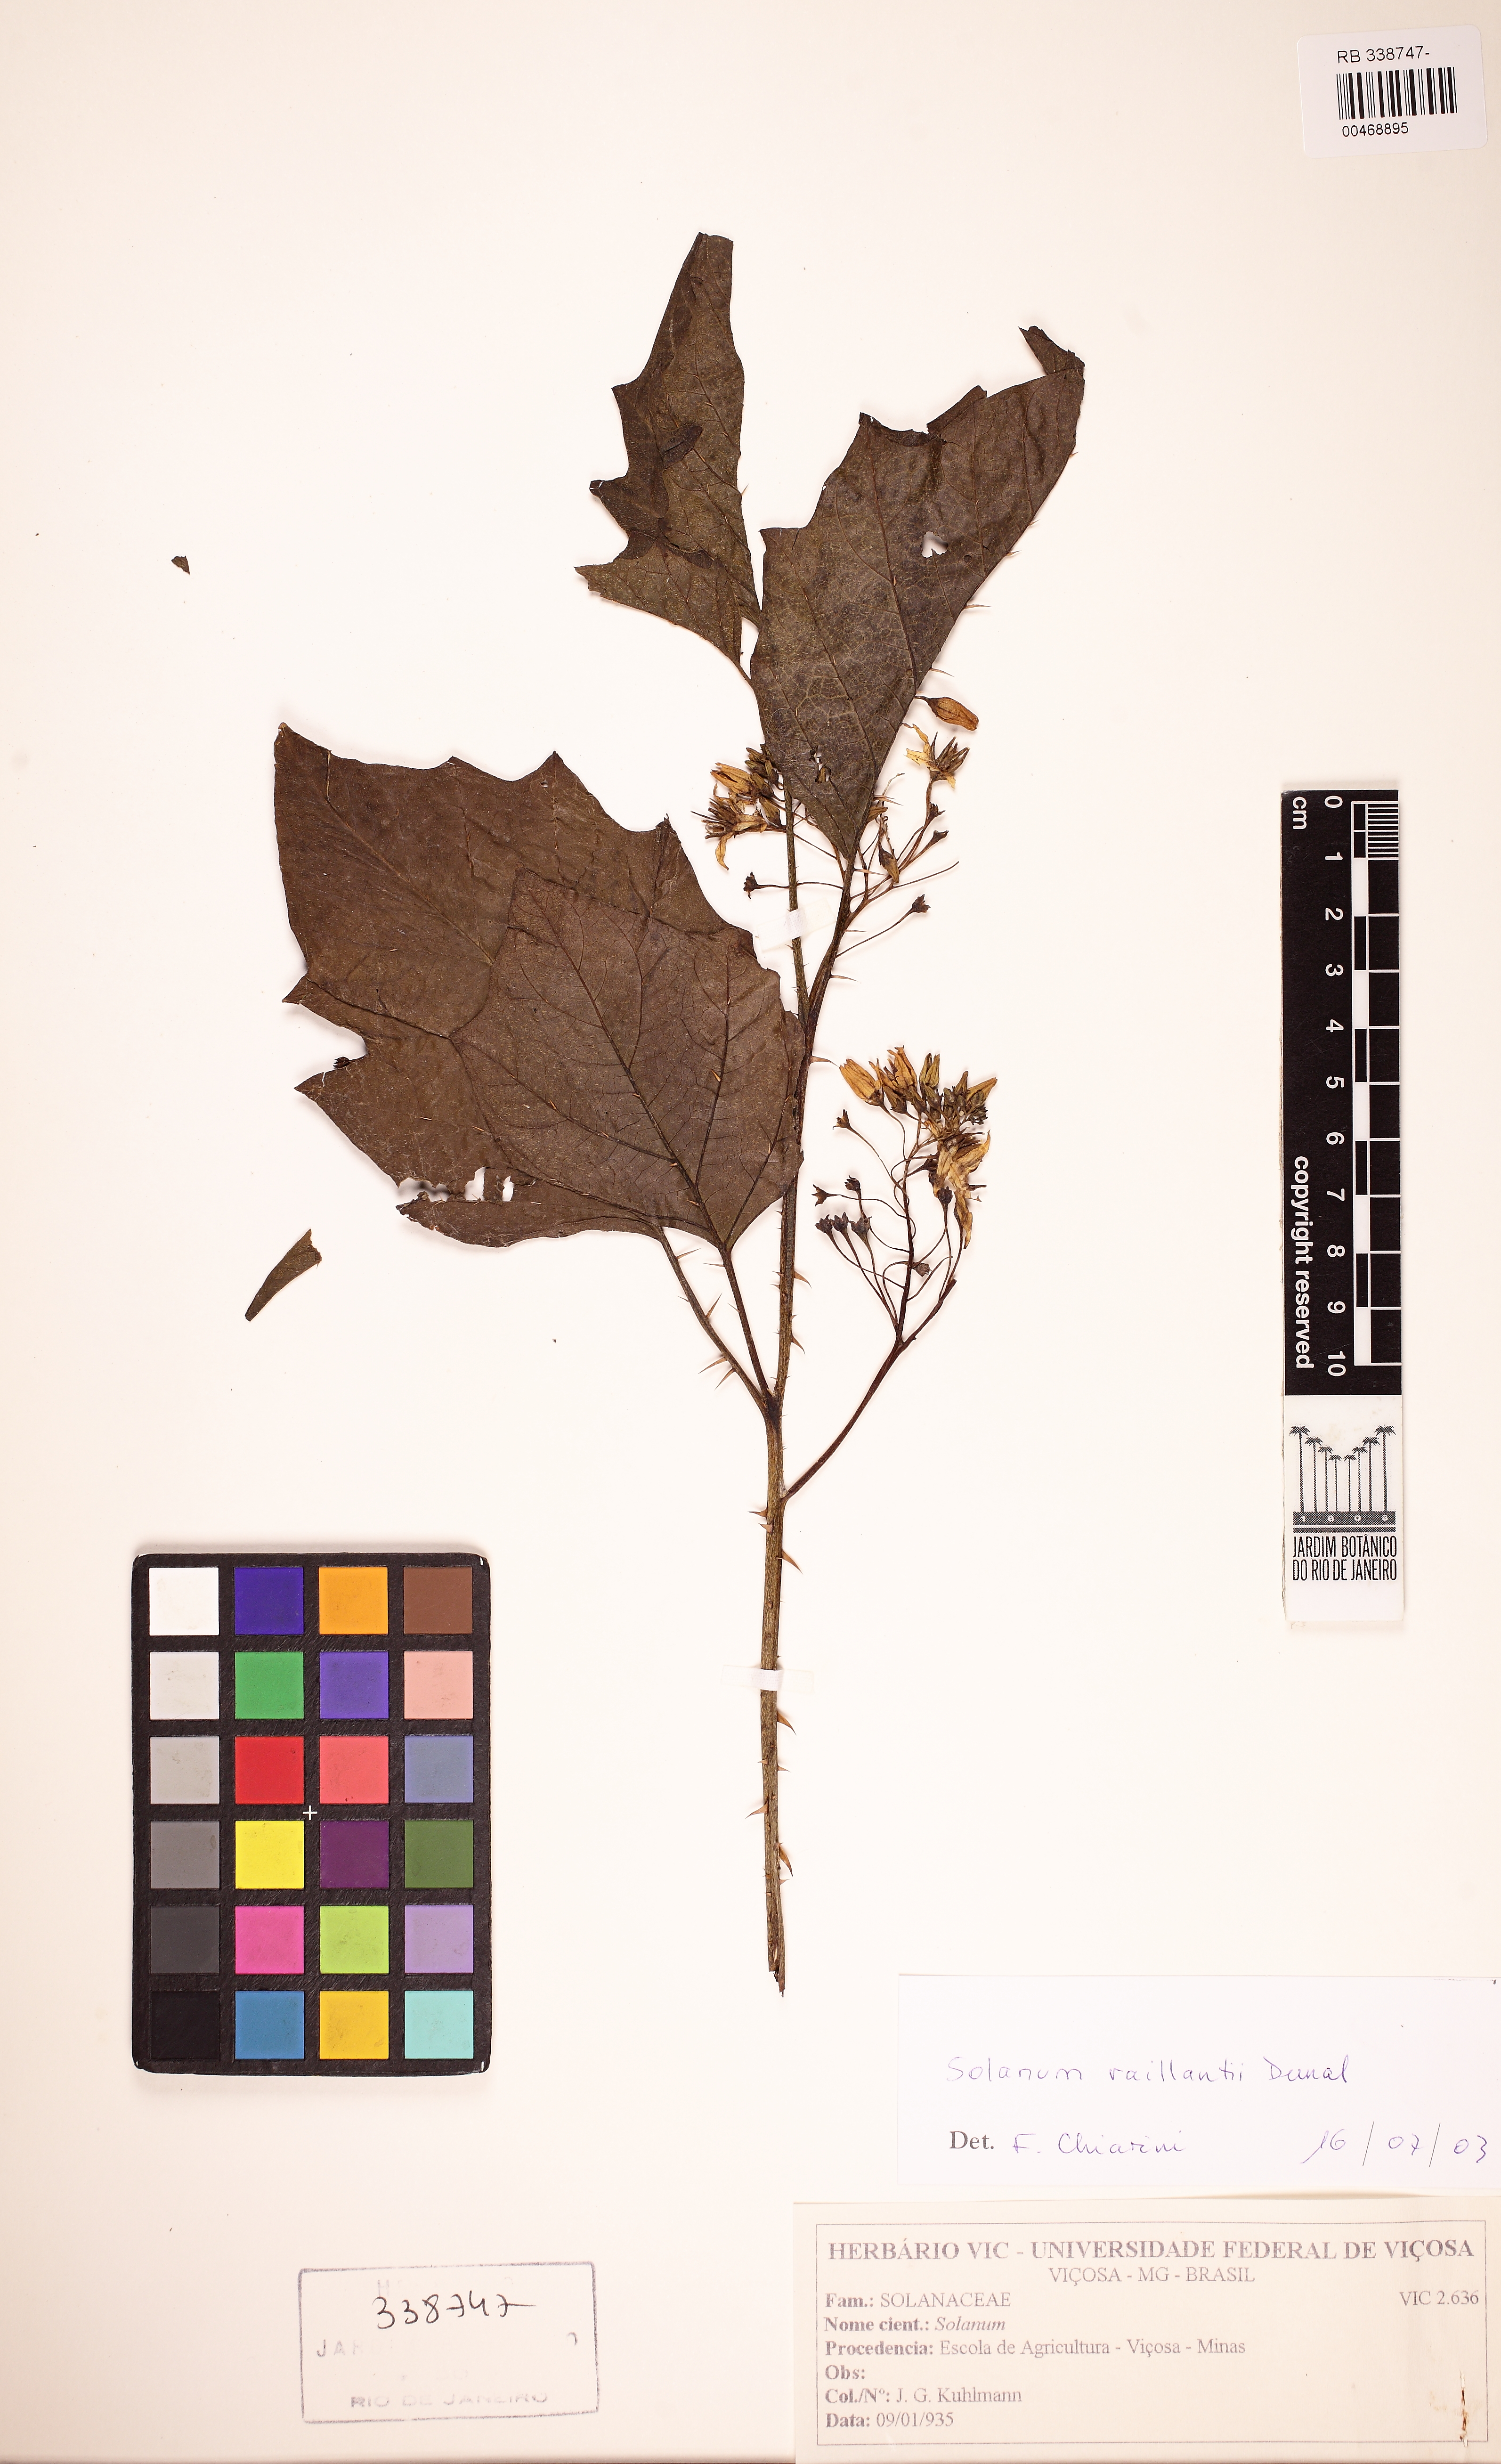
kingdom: Plantae
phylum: Tracheophyta
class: Magnoliopsida
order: Solanales
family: Solanaceae
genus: Solanum
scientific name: Solanum vaillantii
